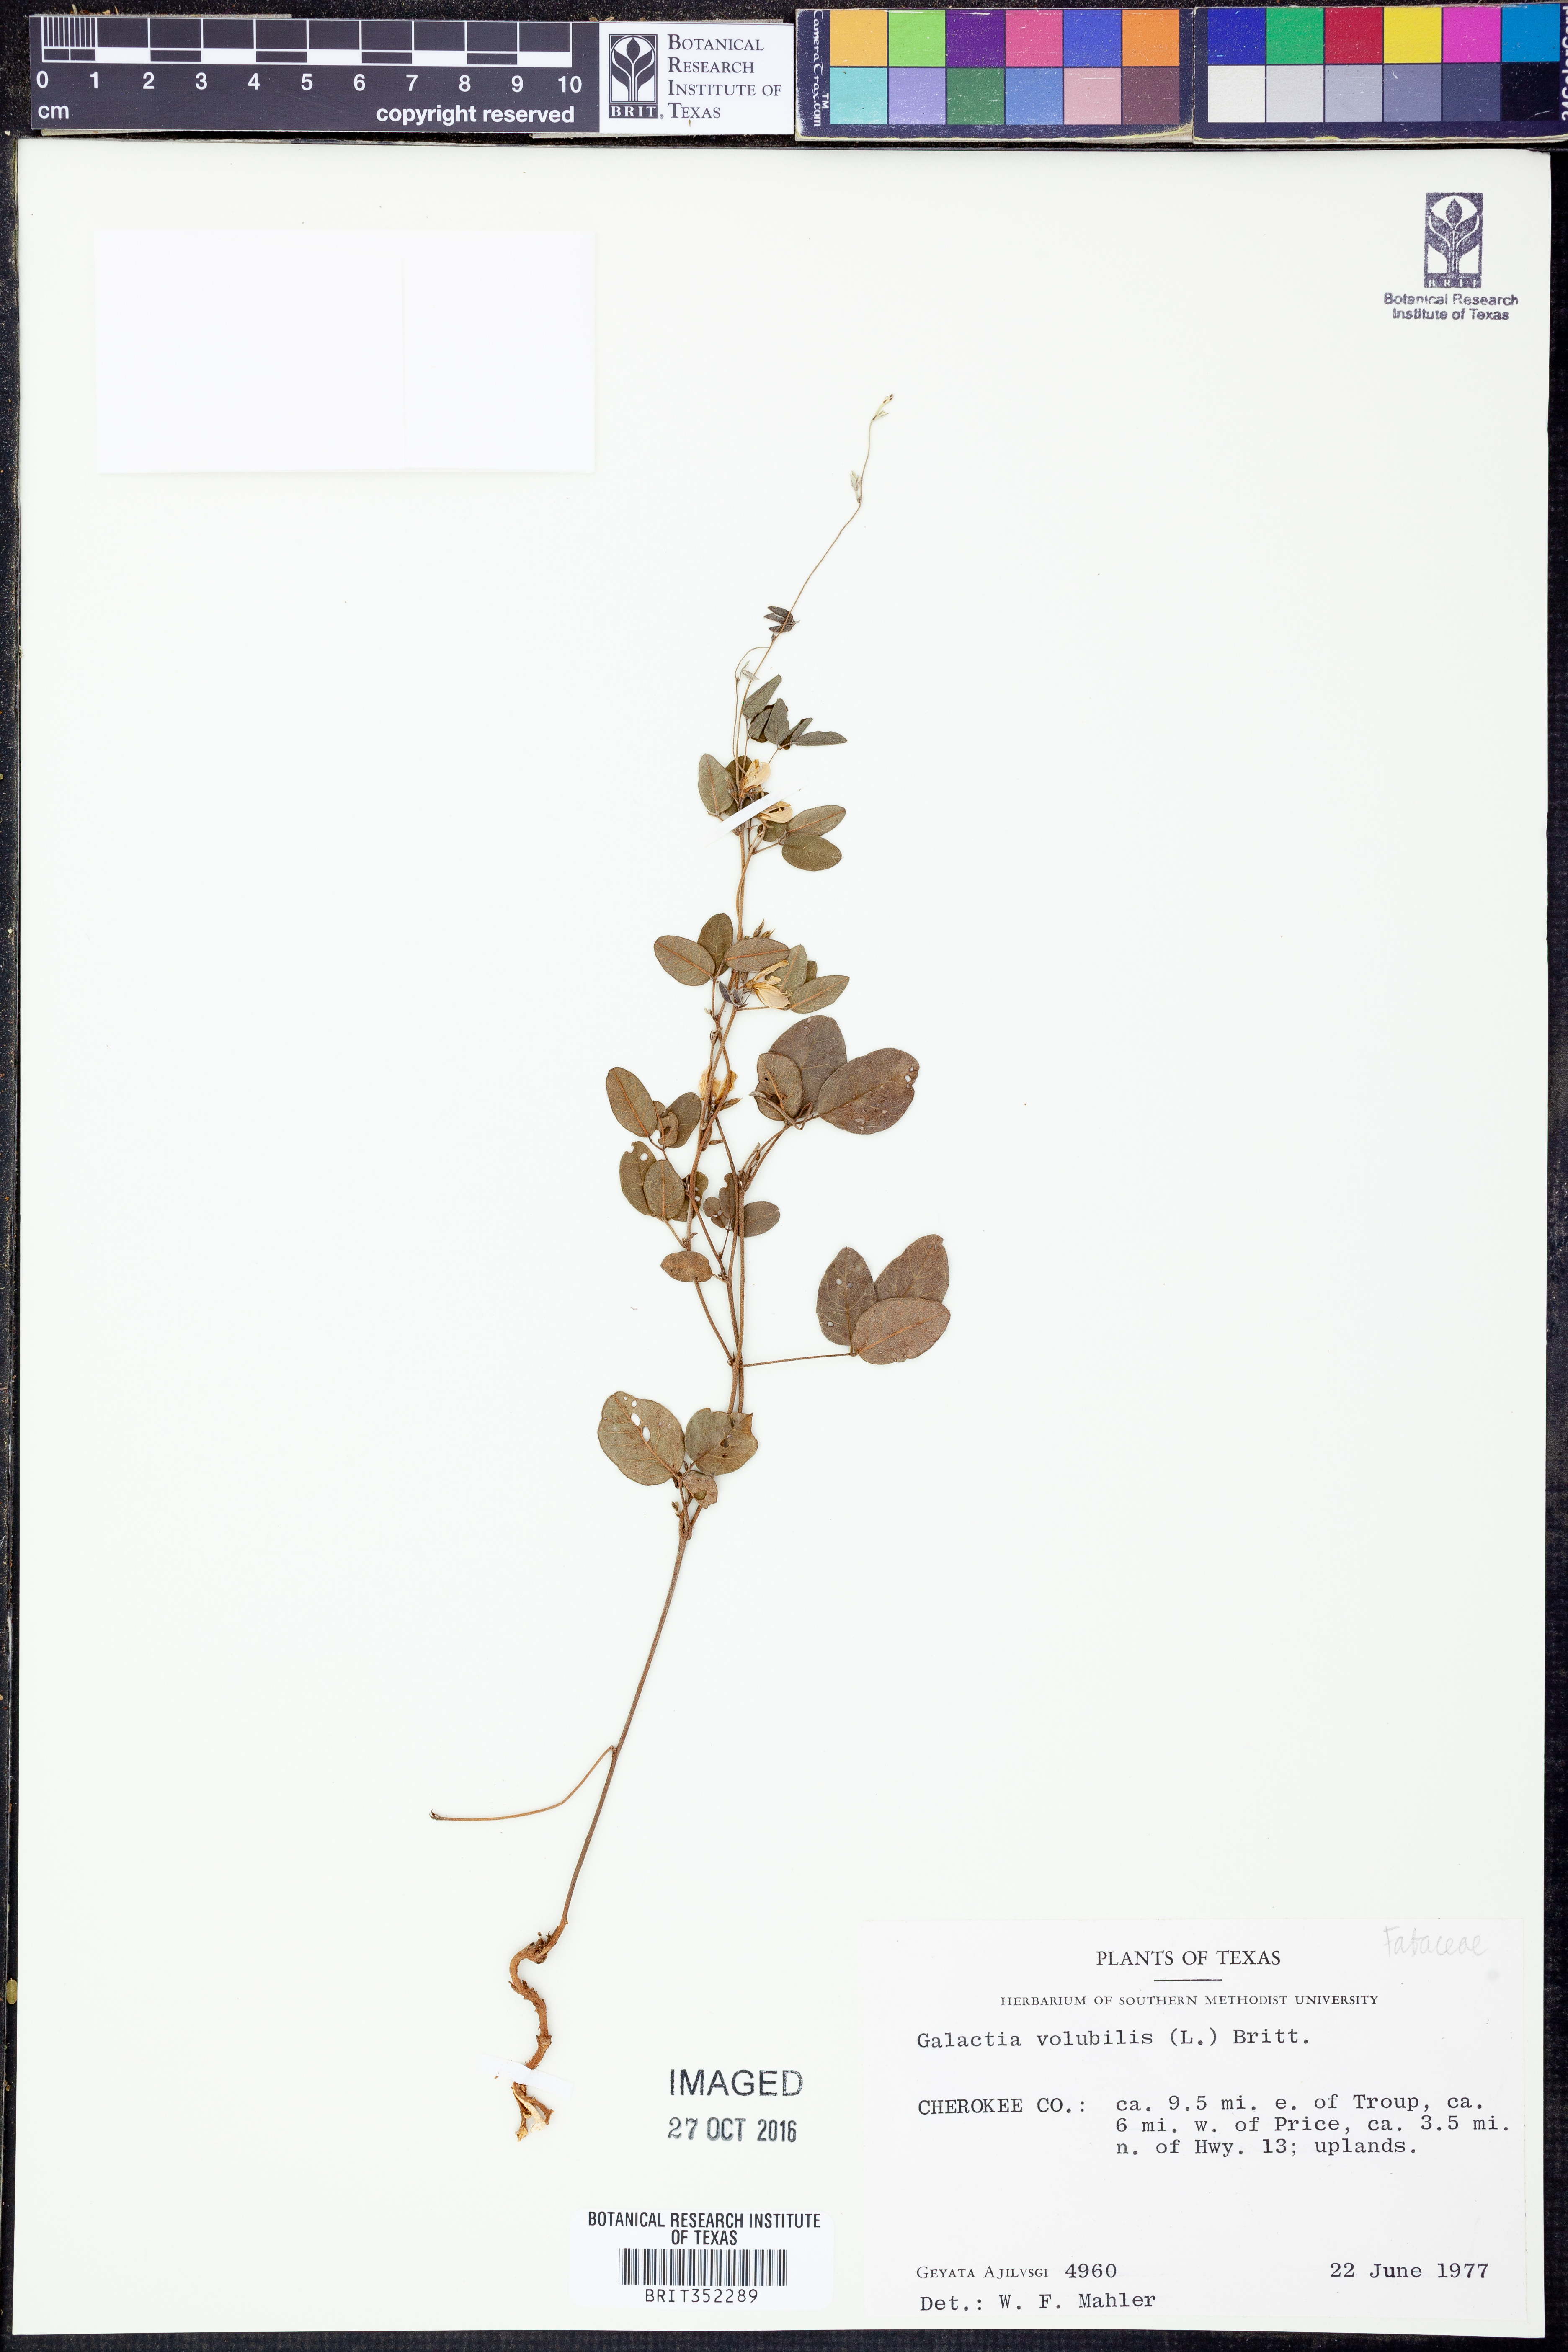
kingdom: Plantae
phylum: Tracheophyta
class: Magnoliopsida
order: Fabales
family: Fabaceae
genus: Galactia
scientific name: Galactia volubilis
